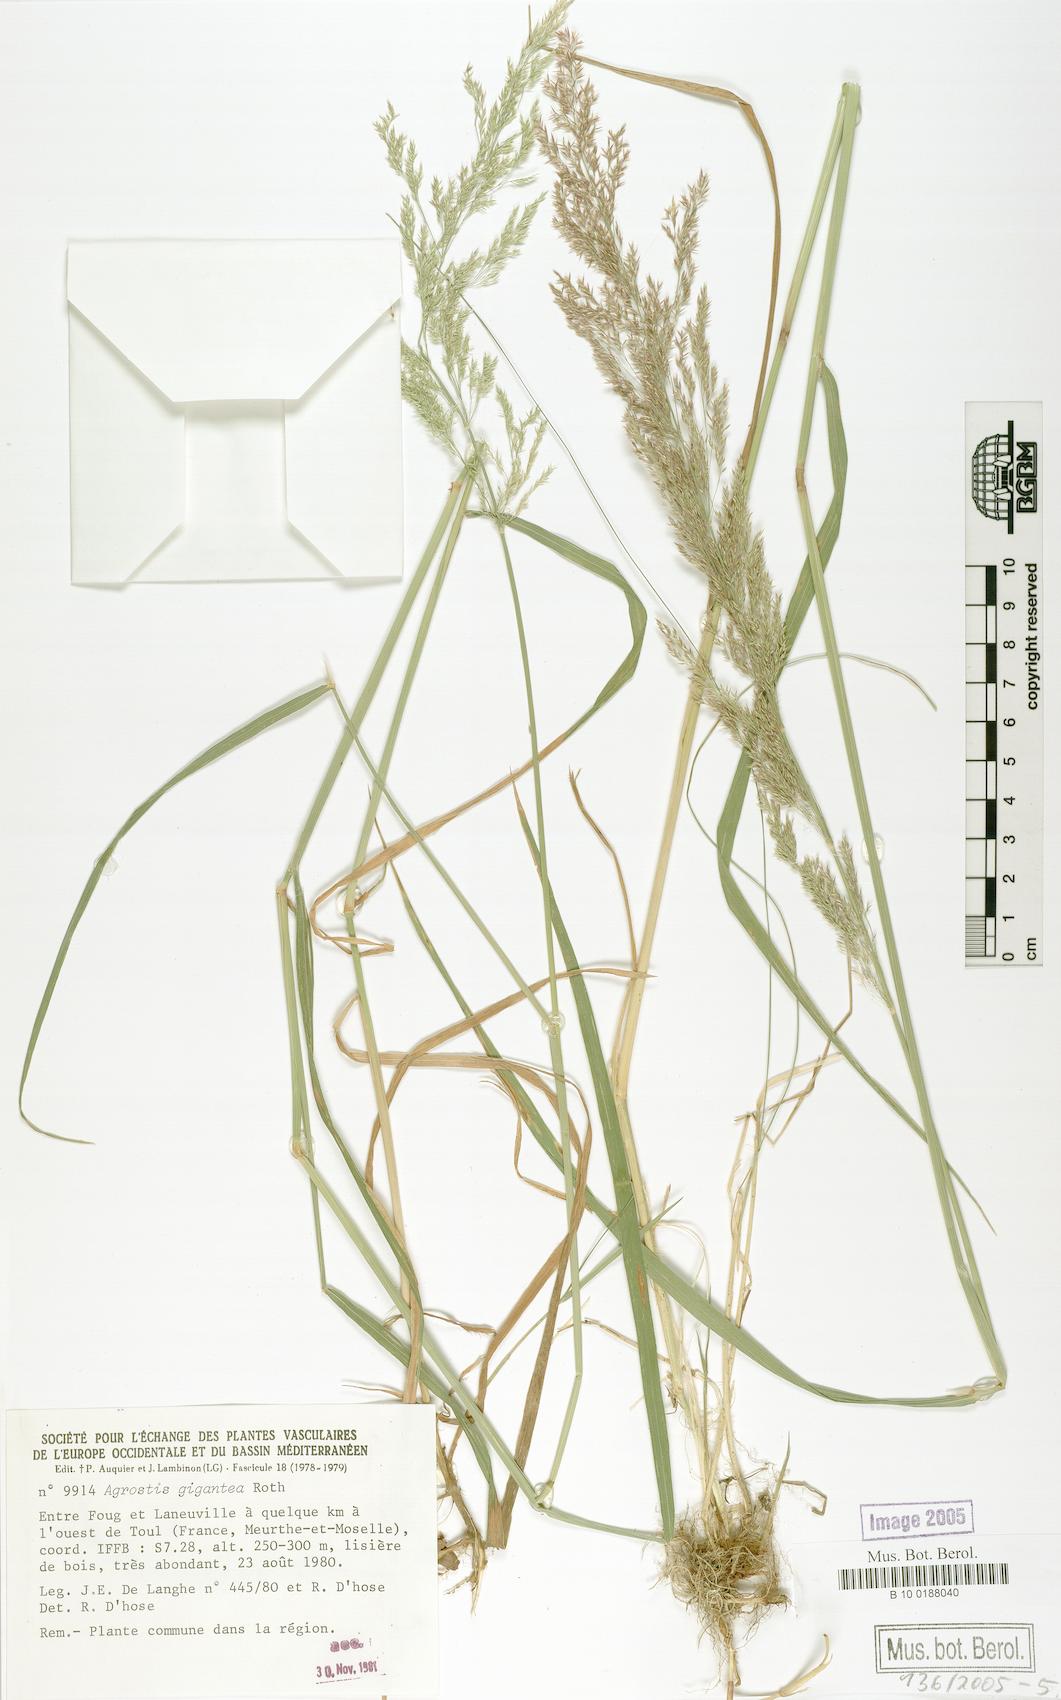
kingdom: Plantae
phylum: Tracheophyta
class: Liliopsida
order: Poales
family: Poaceae
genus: Agrostis
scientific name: Agrostis gigantea
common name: Black bent
